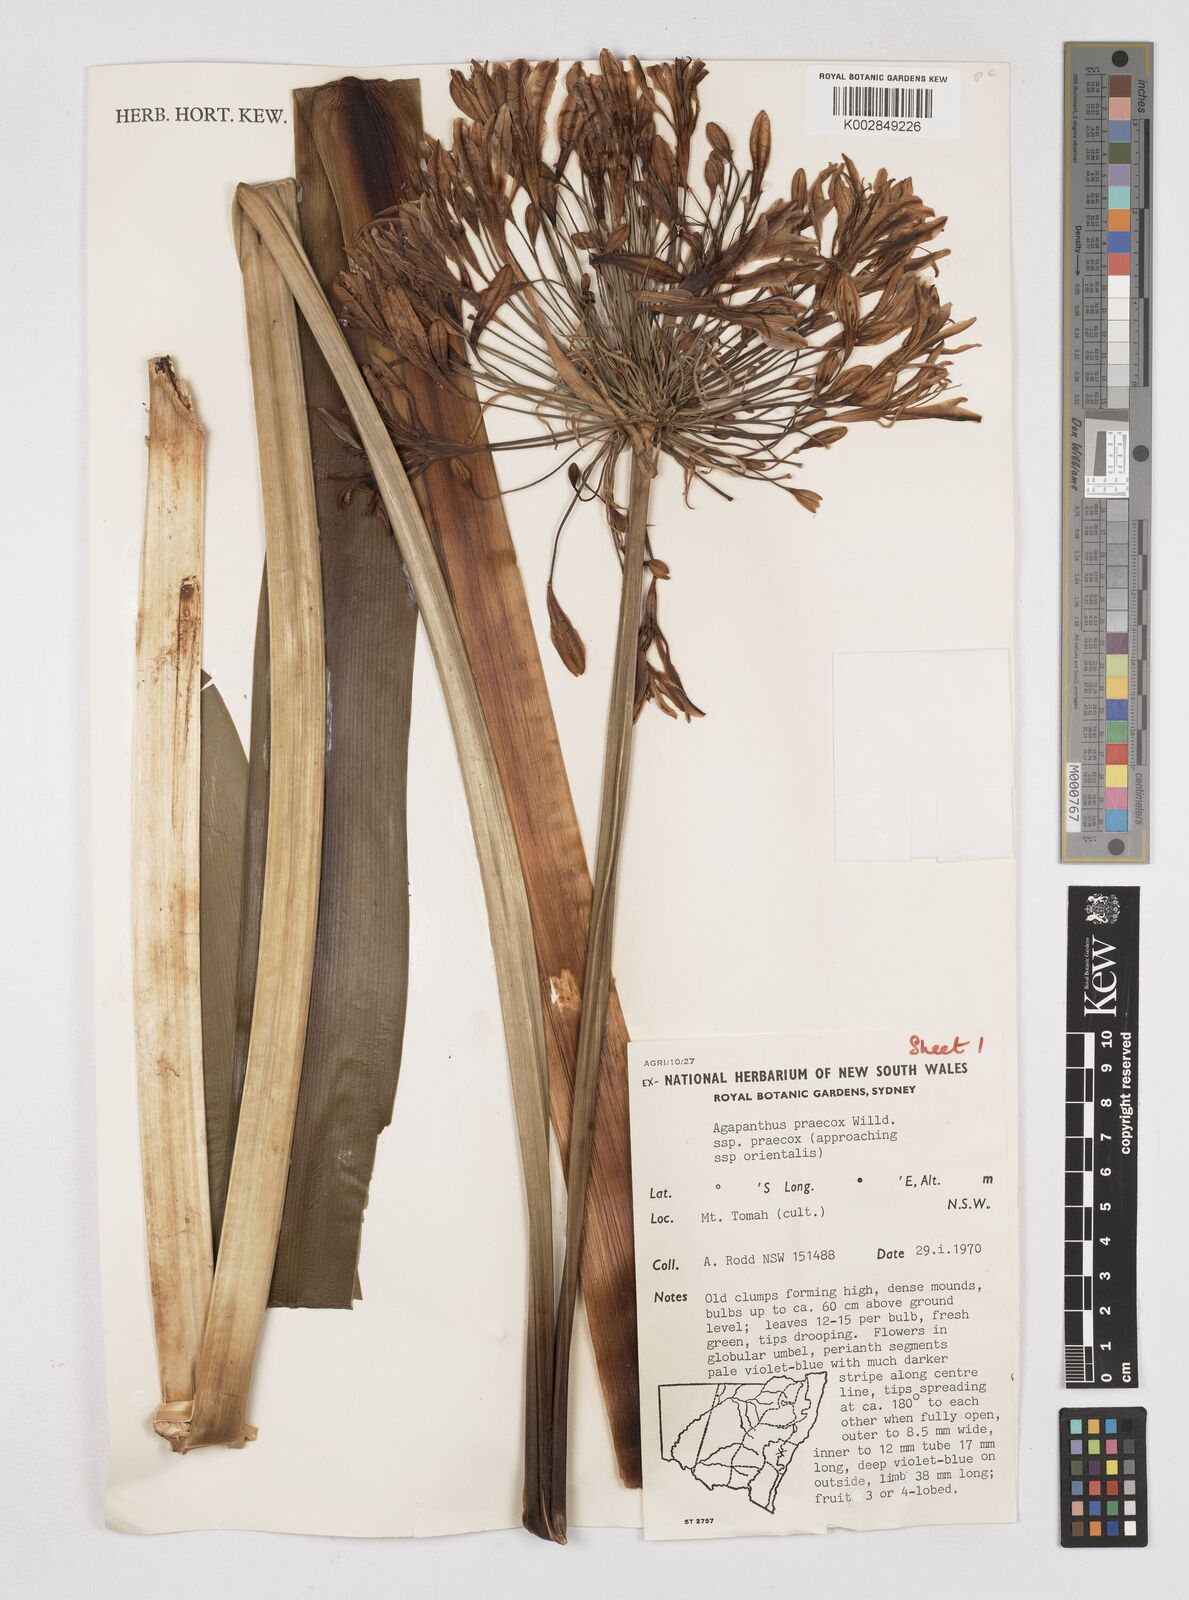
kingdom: Plantae
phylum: Tracheophyta
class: Liliopsida
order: Asparagales
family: Amaryllidaceae
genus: Agapanthus
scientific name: Agapanthus praecox
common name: African-lily
